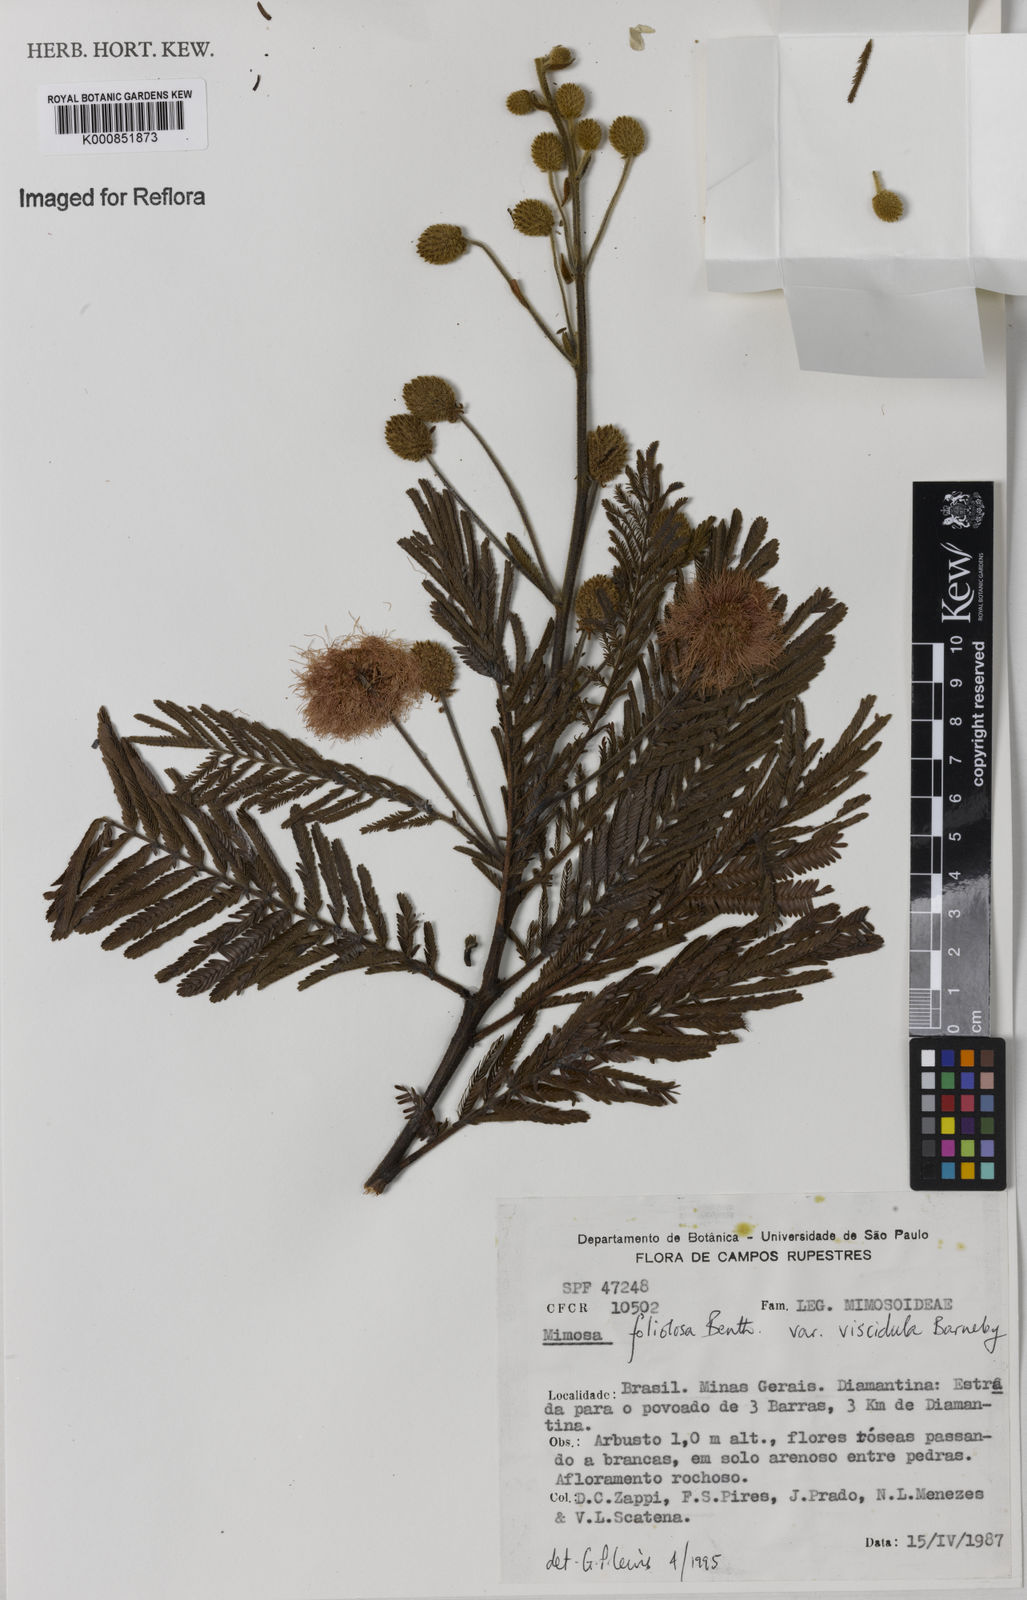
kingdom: Plantae
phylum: Tracheophyta
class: Magnoliopsida
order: Fabales
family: Fabaceae
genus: Mimosa
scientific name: Mimosa foliolosa
